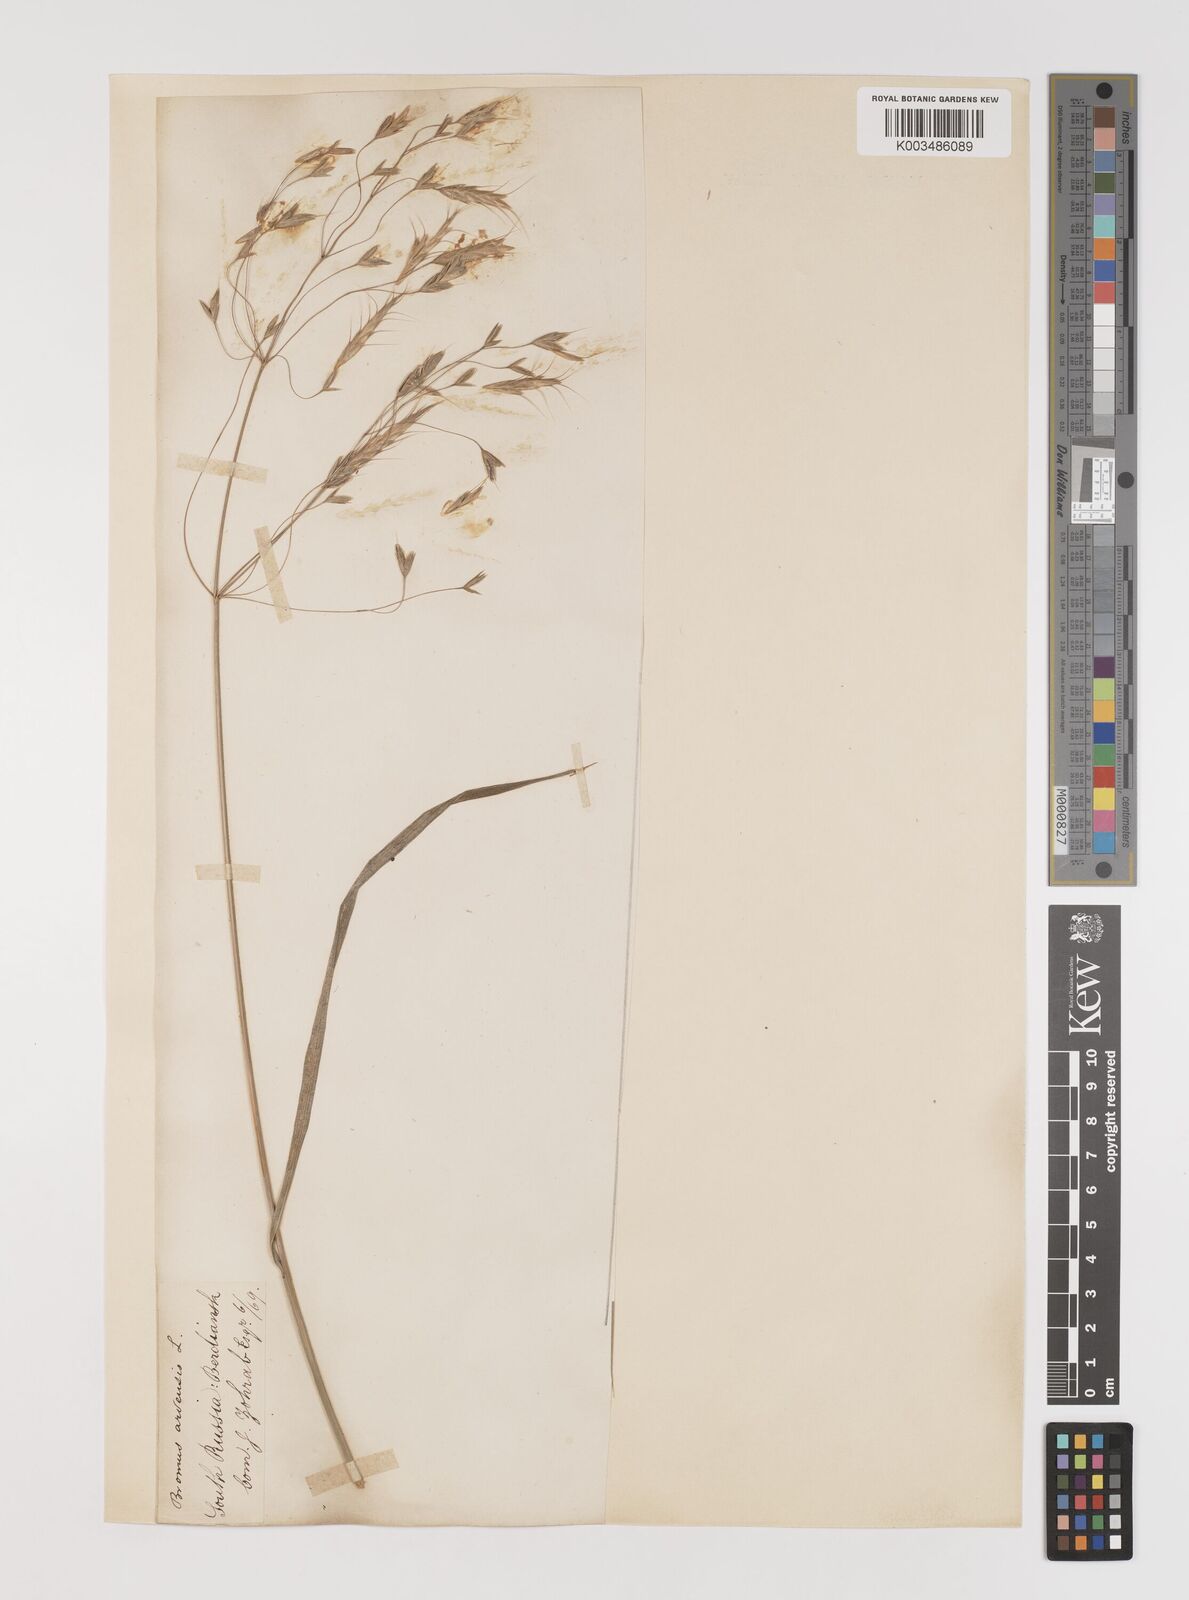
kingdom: Plantae
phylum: Tracheophyta
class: Liliopsida
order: Poales
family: Poaceae
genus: Bromus
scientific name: Bromus arvensis
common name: Field brome
